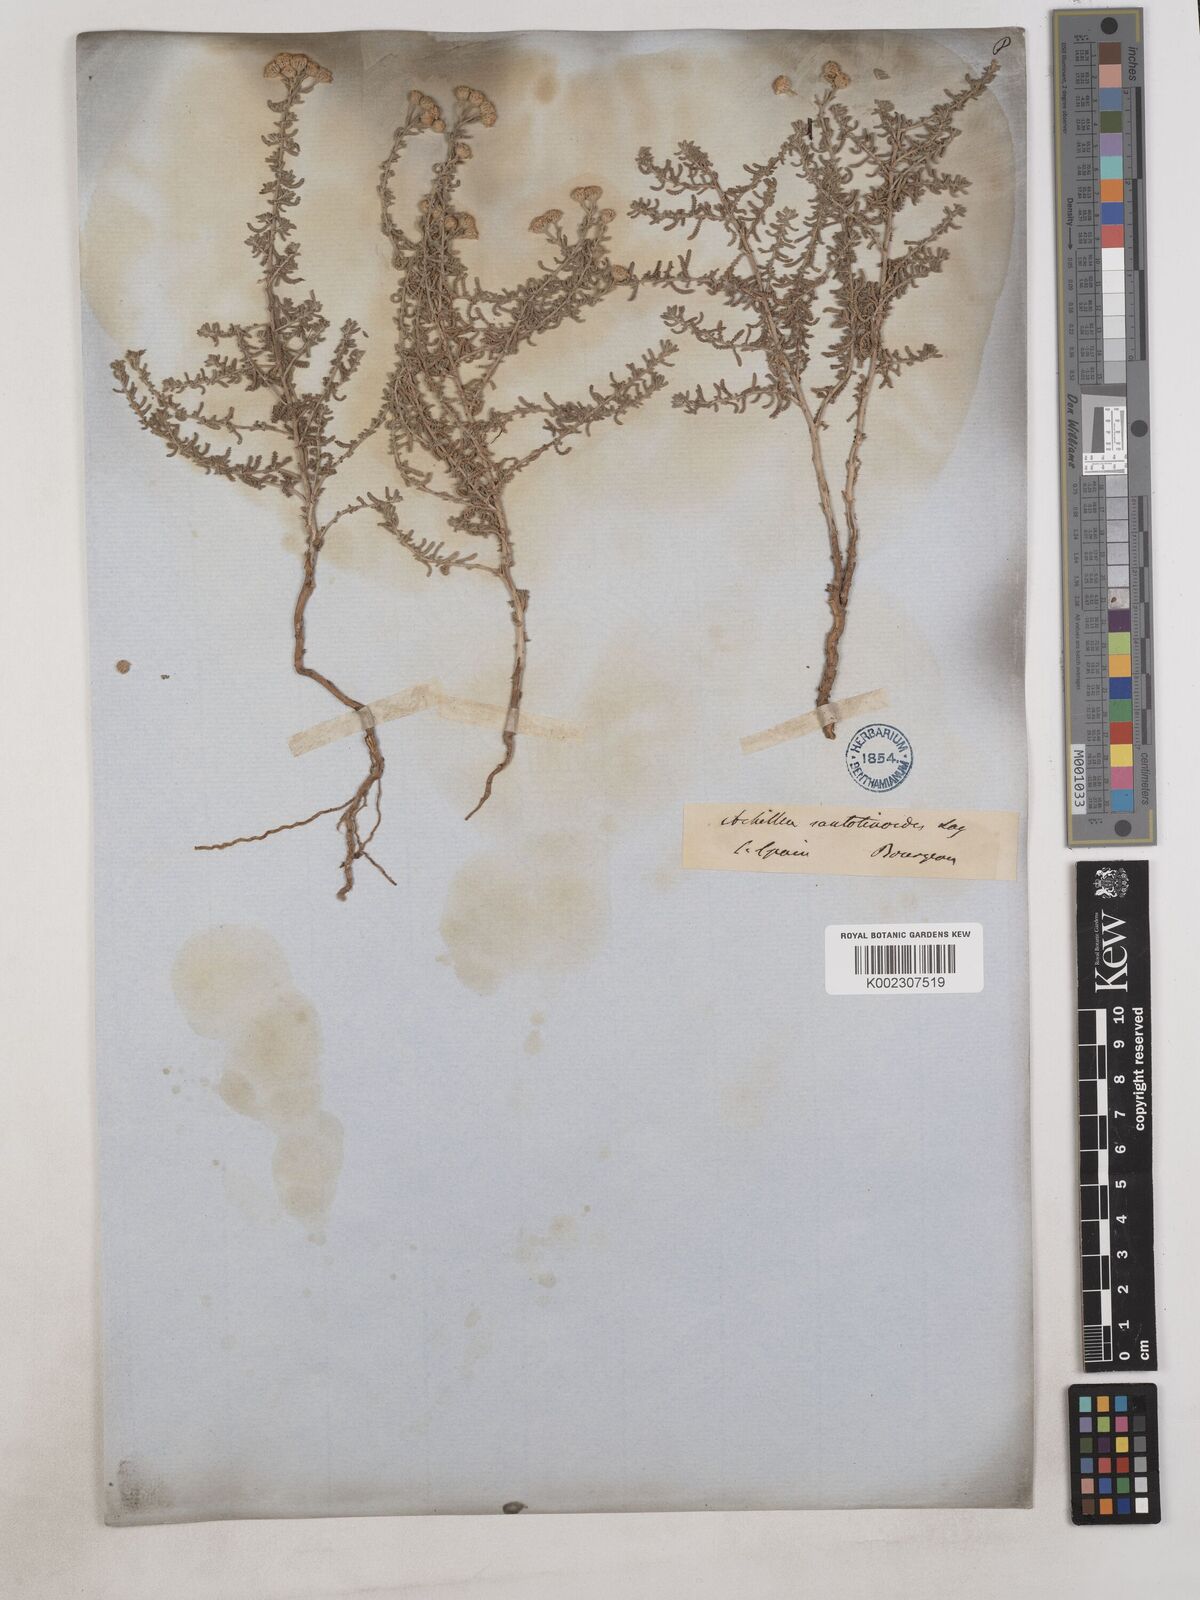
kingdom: Plantae
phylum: Tracheophyta
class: Magnoliopsida
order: Asterales
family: Asteraceae
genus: Achillea
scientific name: Achillea santolinoides
